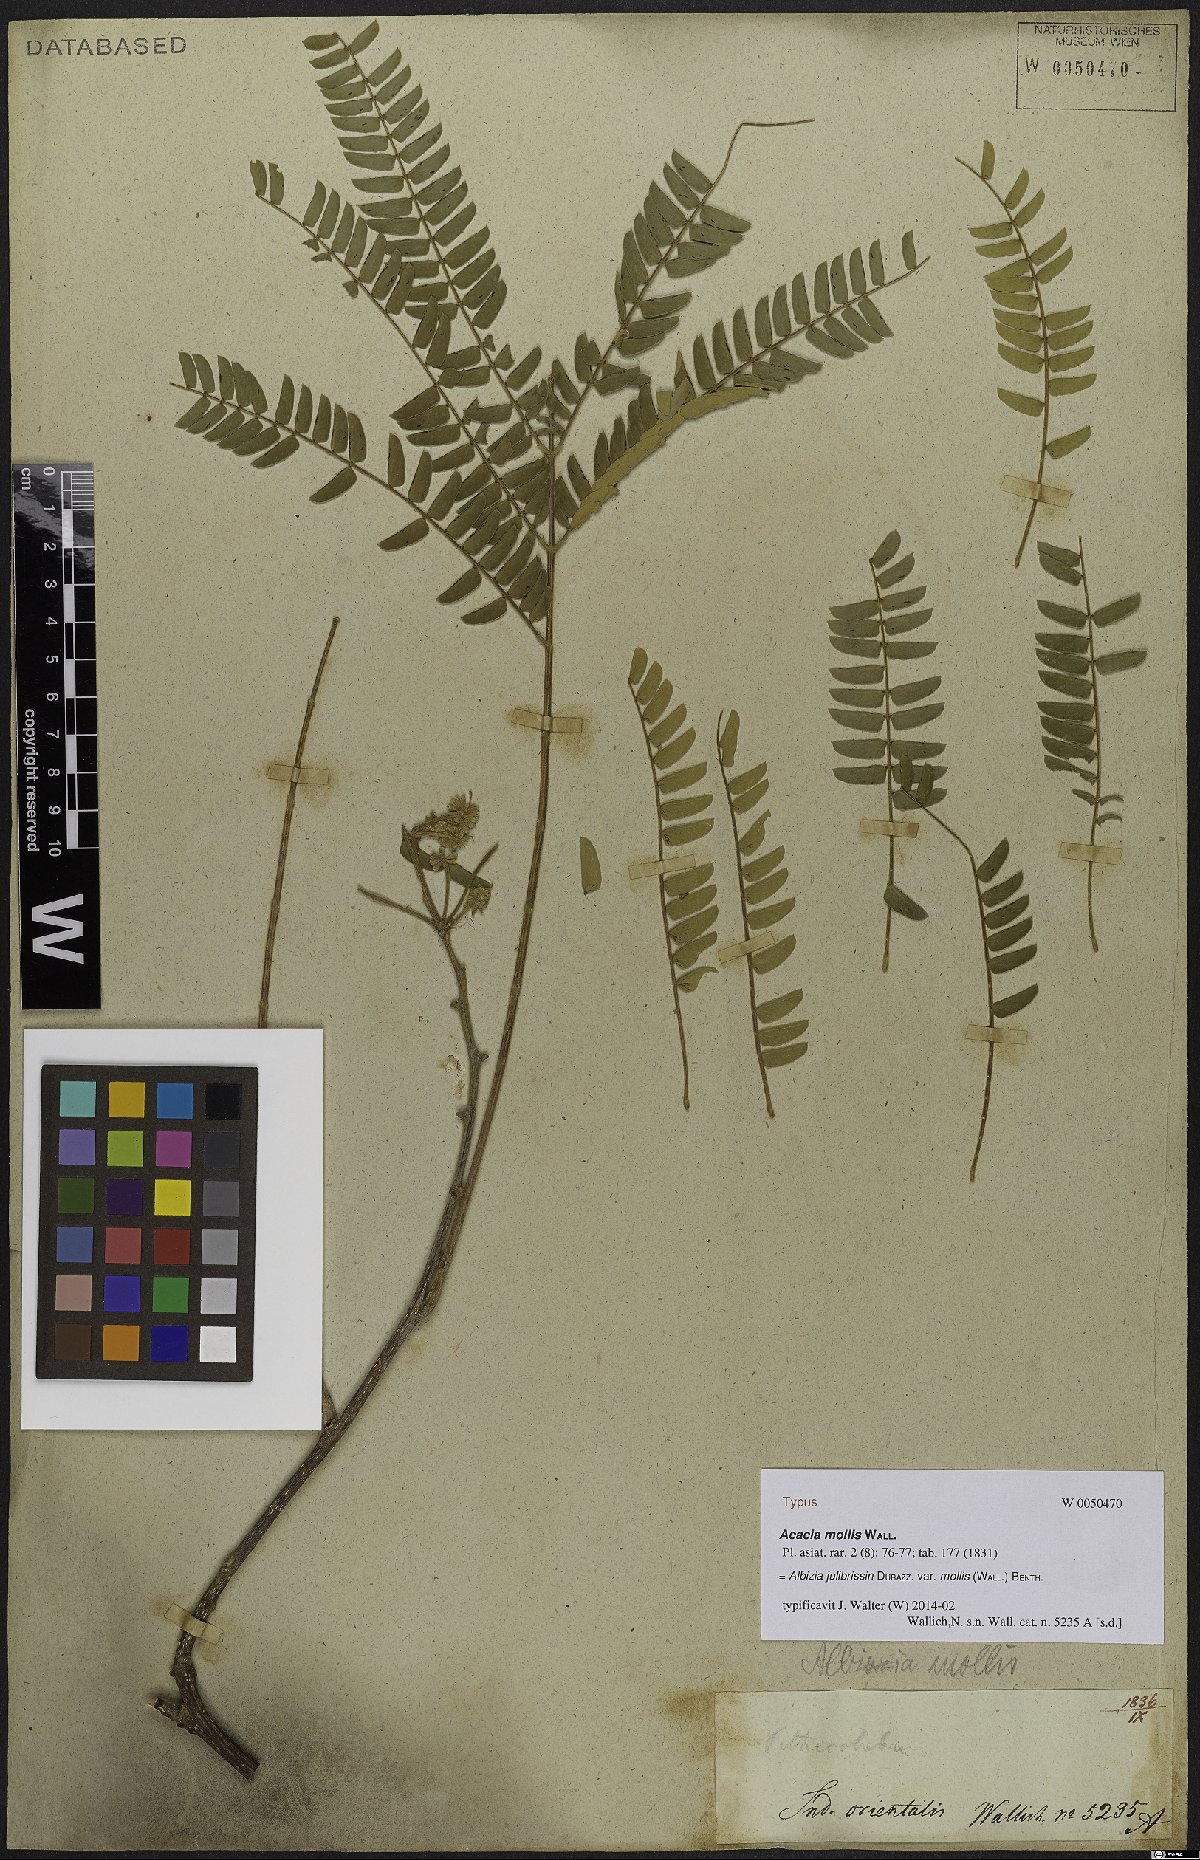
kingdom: Plantae
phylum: Tracheophyta
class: Magnoliopsida
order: Fabales
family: Fabaceae
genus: Albizia
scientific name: Albizia julibrissin
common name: Silktree
